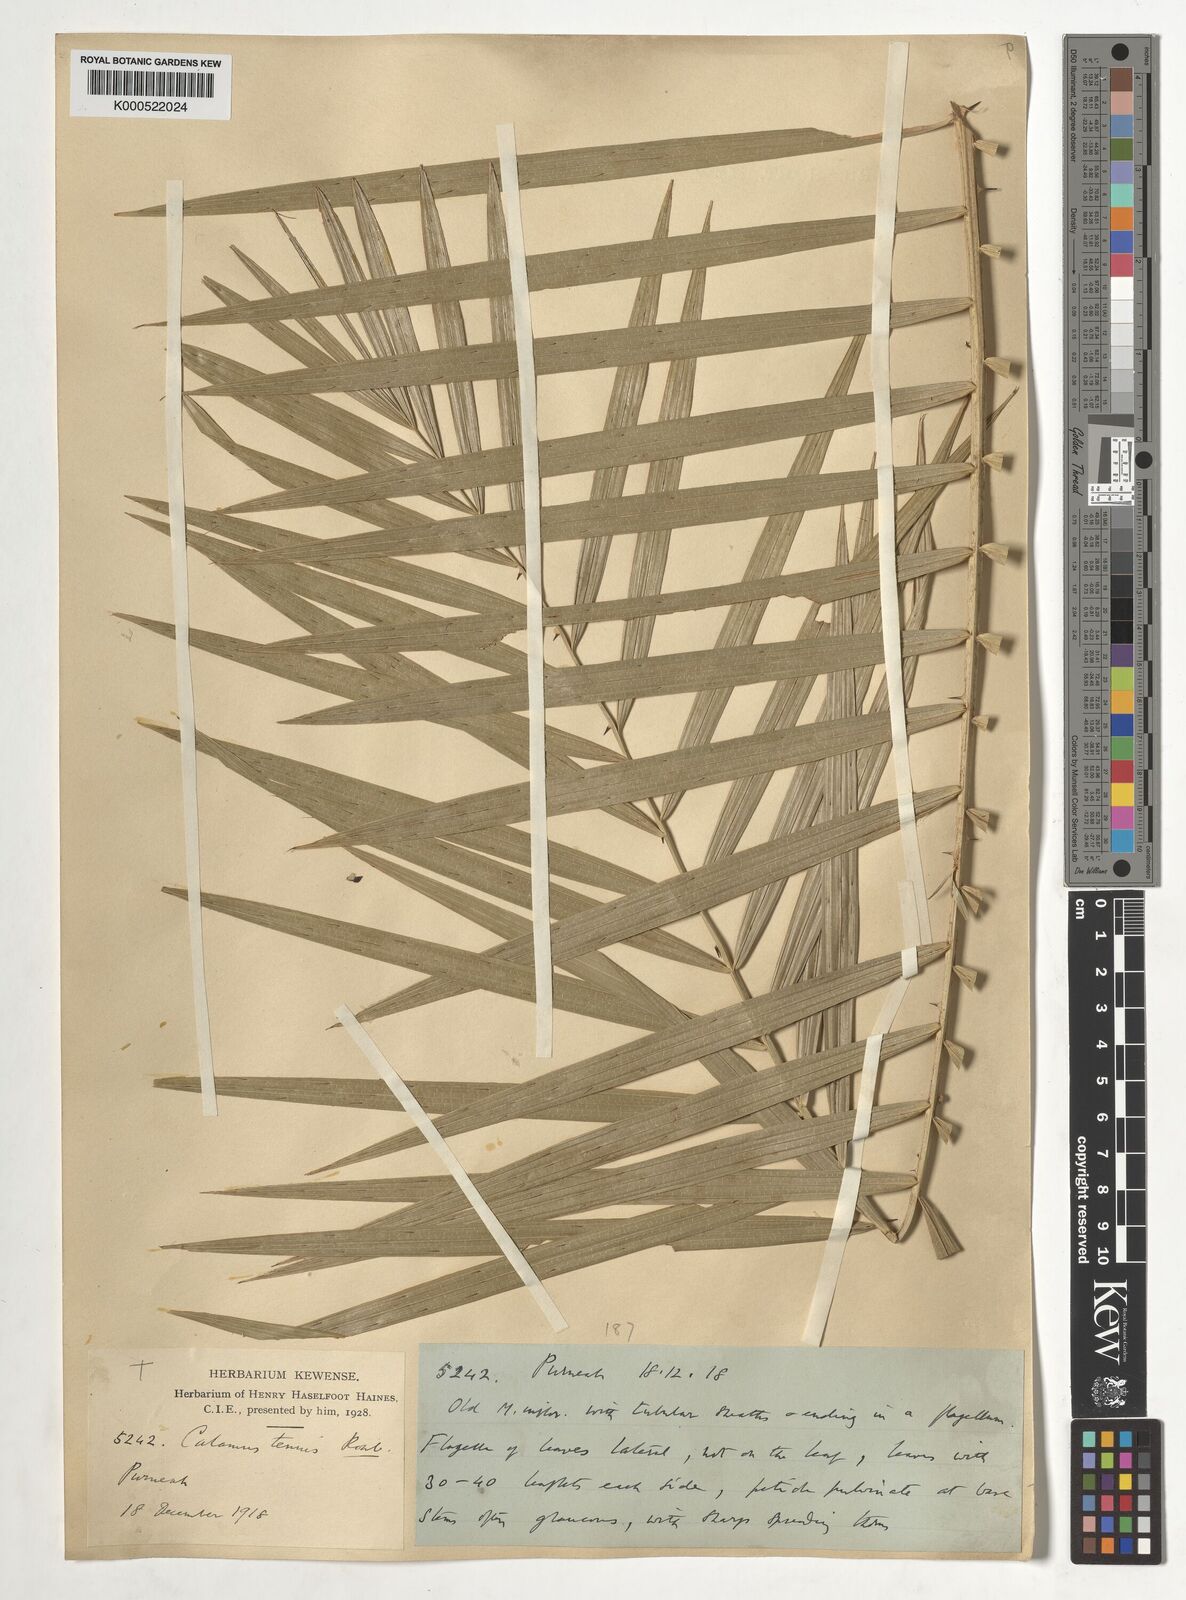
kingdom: Plantae
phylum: Tracheophyta
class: Liliopsida
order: Arecales
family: Arecaceae
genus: Calamus
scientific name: Calamus tenuis
